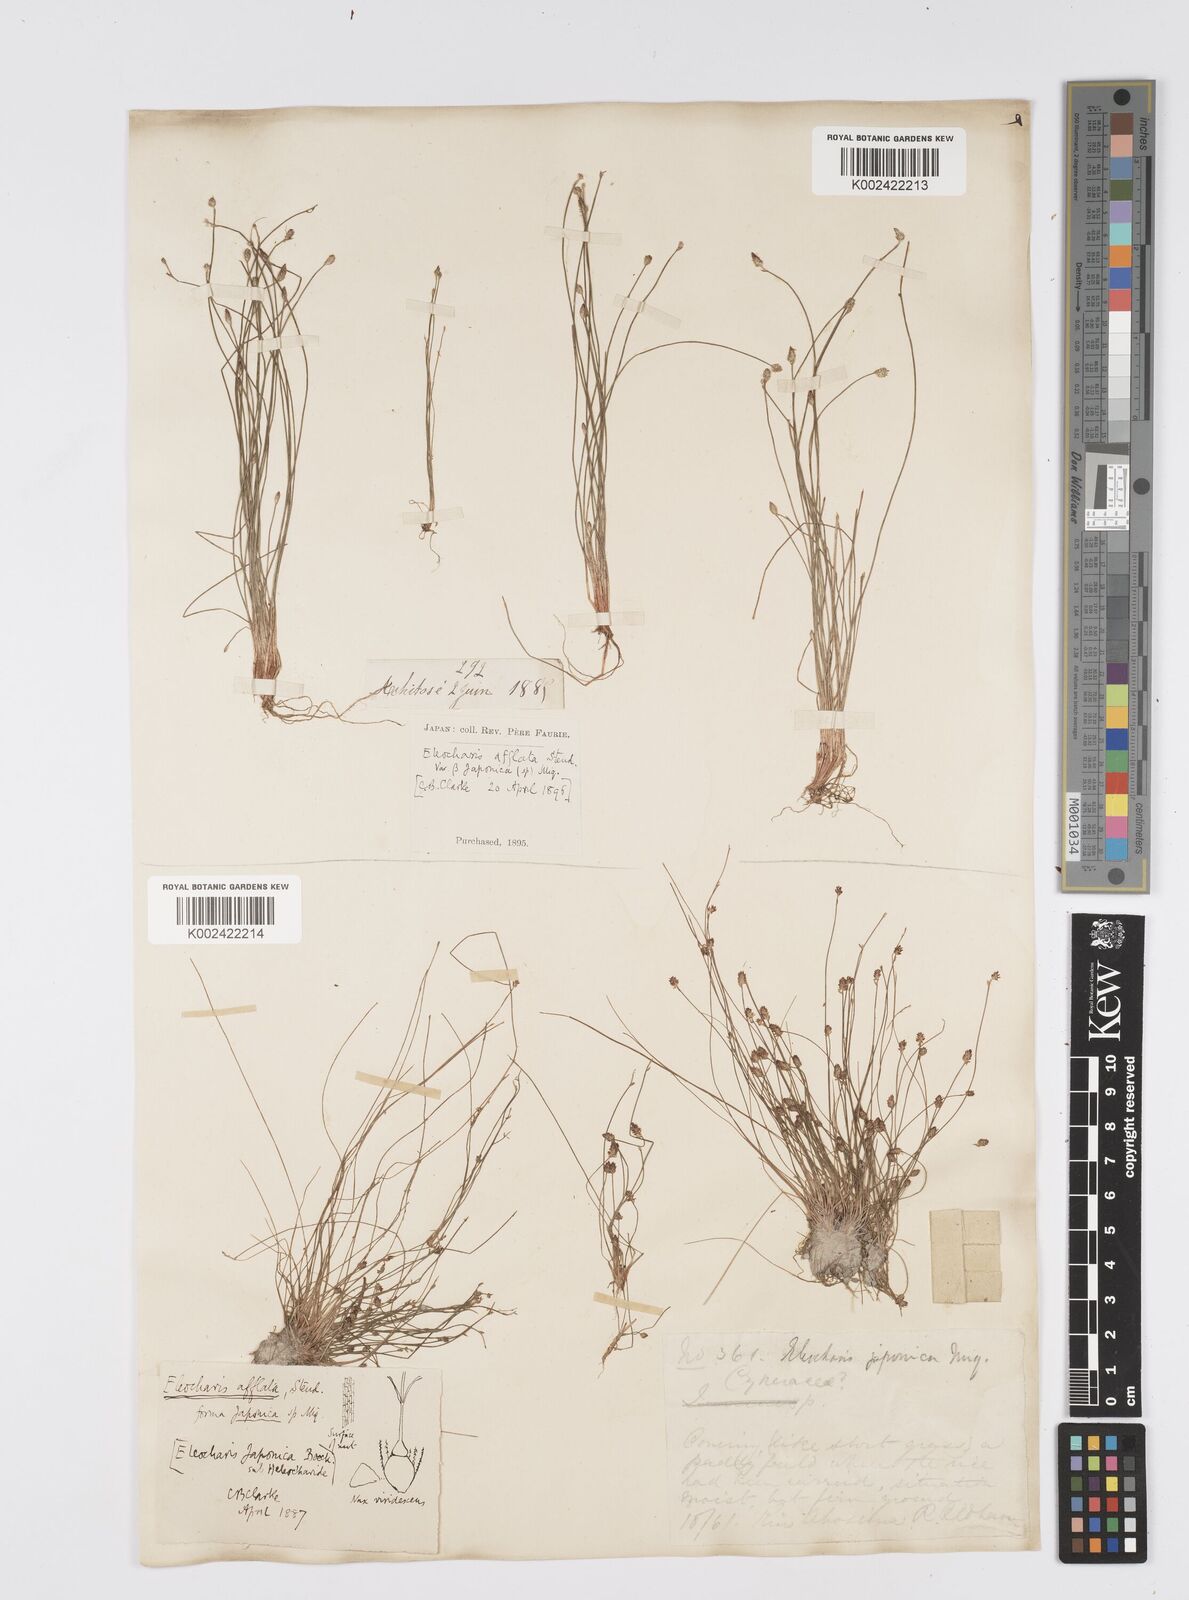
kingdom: Plantae
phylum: Tracheophyta
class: Liliopsida
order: Poales
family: Cyperaceae
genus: Eleocharis
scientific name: Eleocharis pellucida
